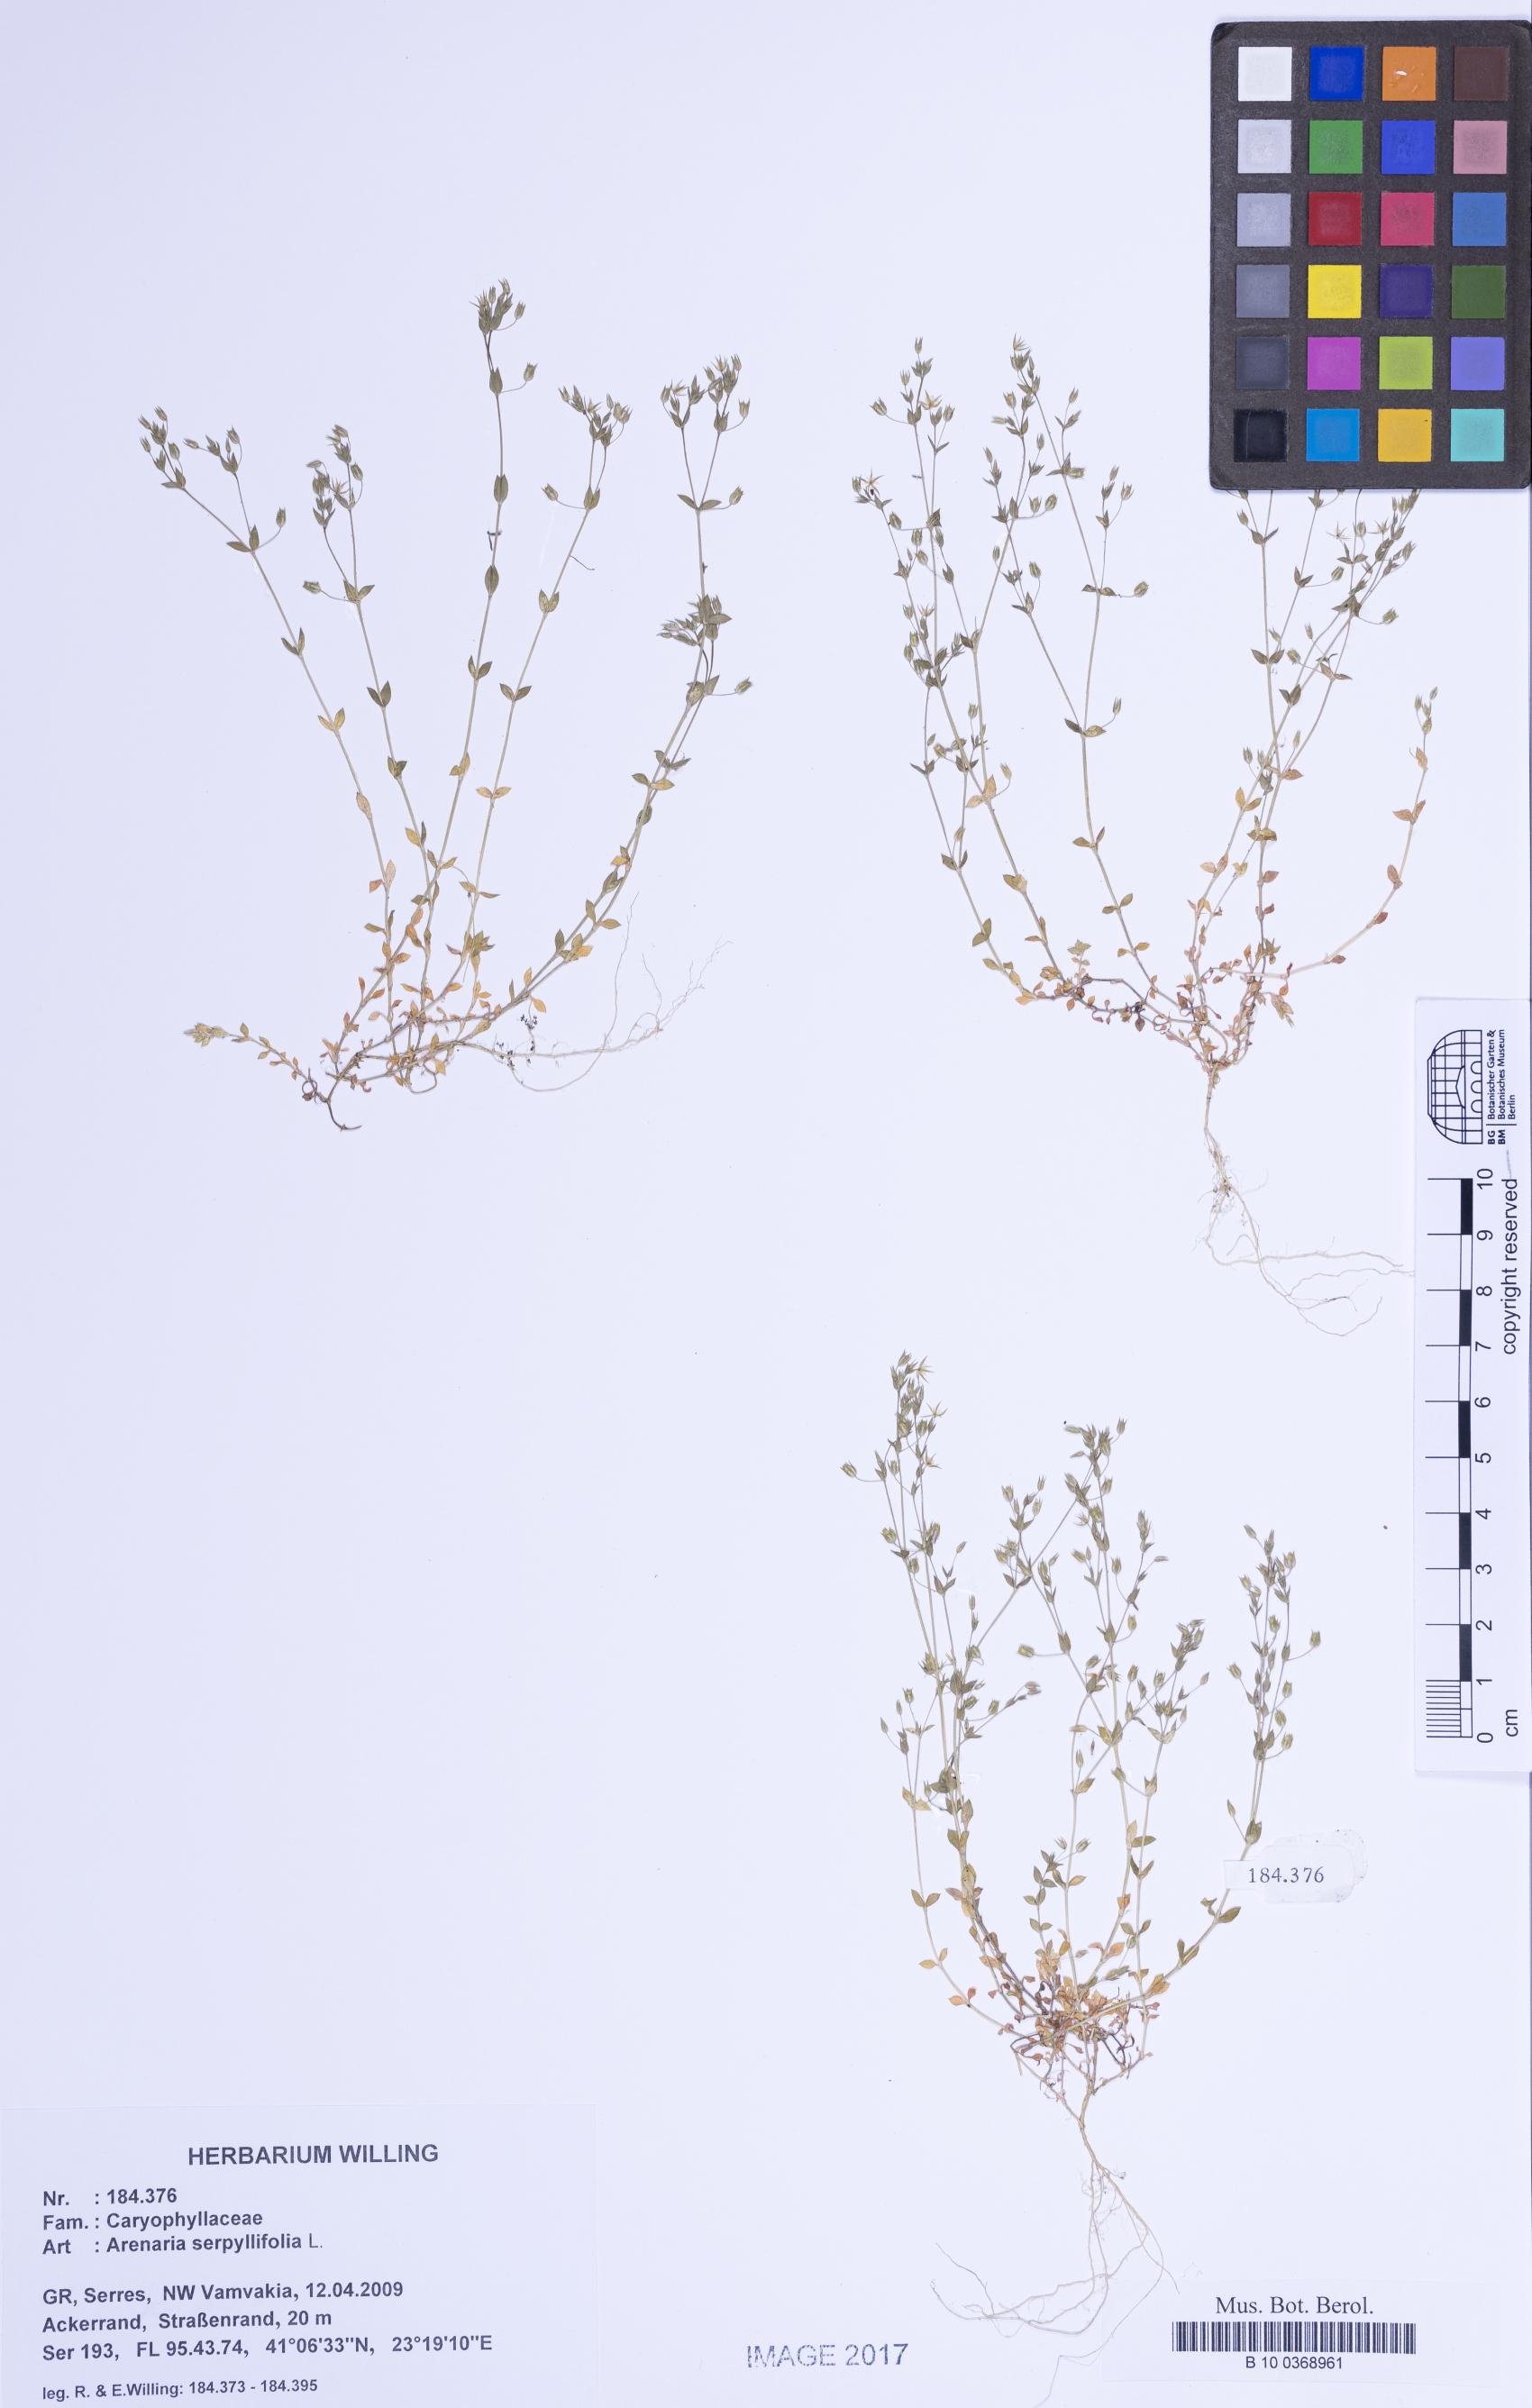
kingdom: Plantae
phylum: Tracheophyta
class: Magnoliopsida
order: Caryophyllales
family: Caryophyllaceae
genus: Arenaria
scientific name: Arenaria serpyllifolia
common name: Thyme-leaved sandwort
